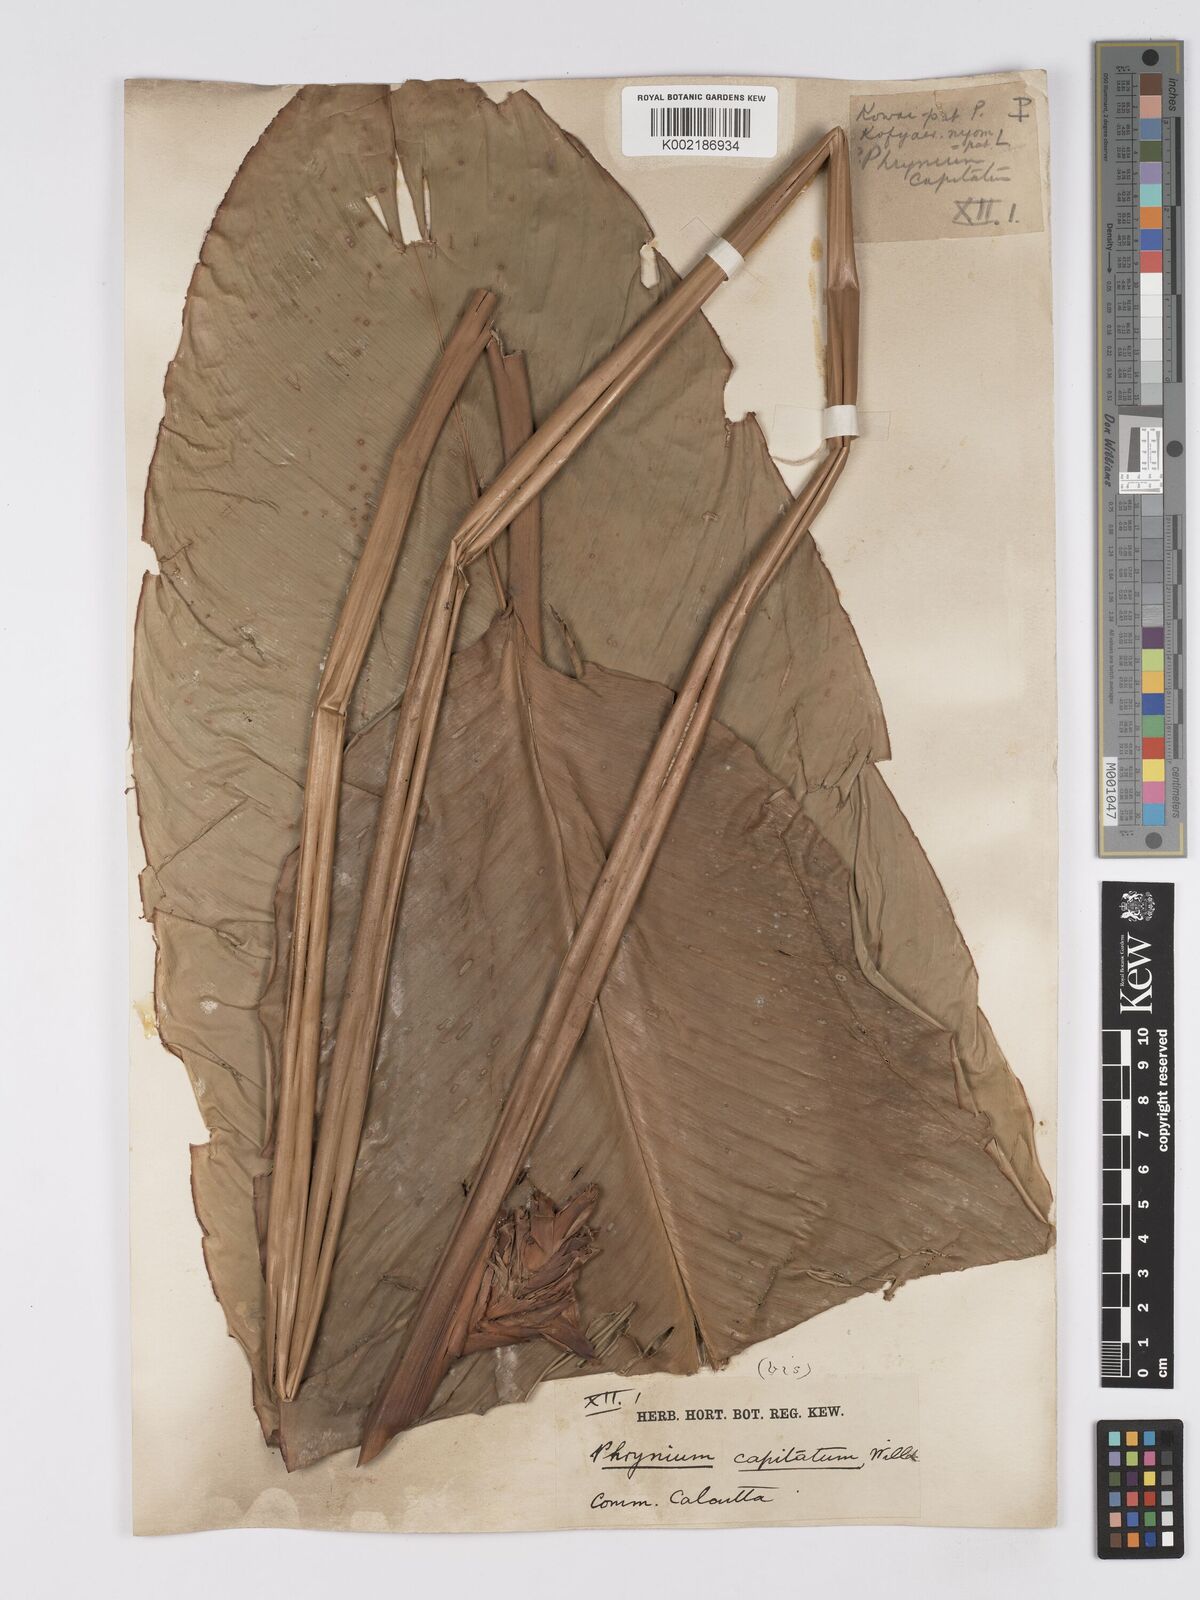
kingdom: Plantae
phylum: Tracheophyta
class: Liliopsida
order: Zingiberales
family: Marantaceae
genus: Phrynium
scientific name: Phrynium pubinerve
